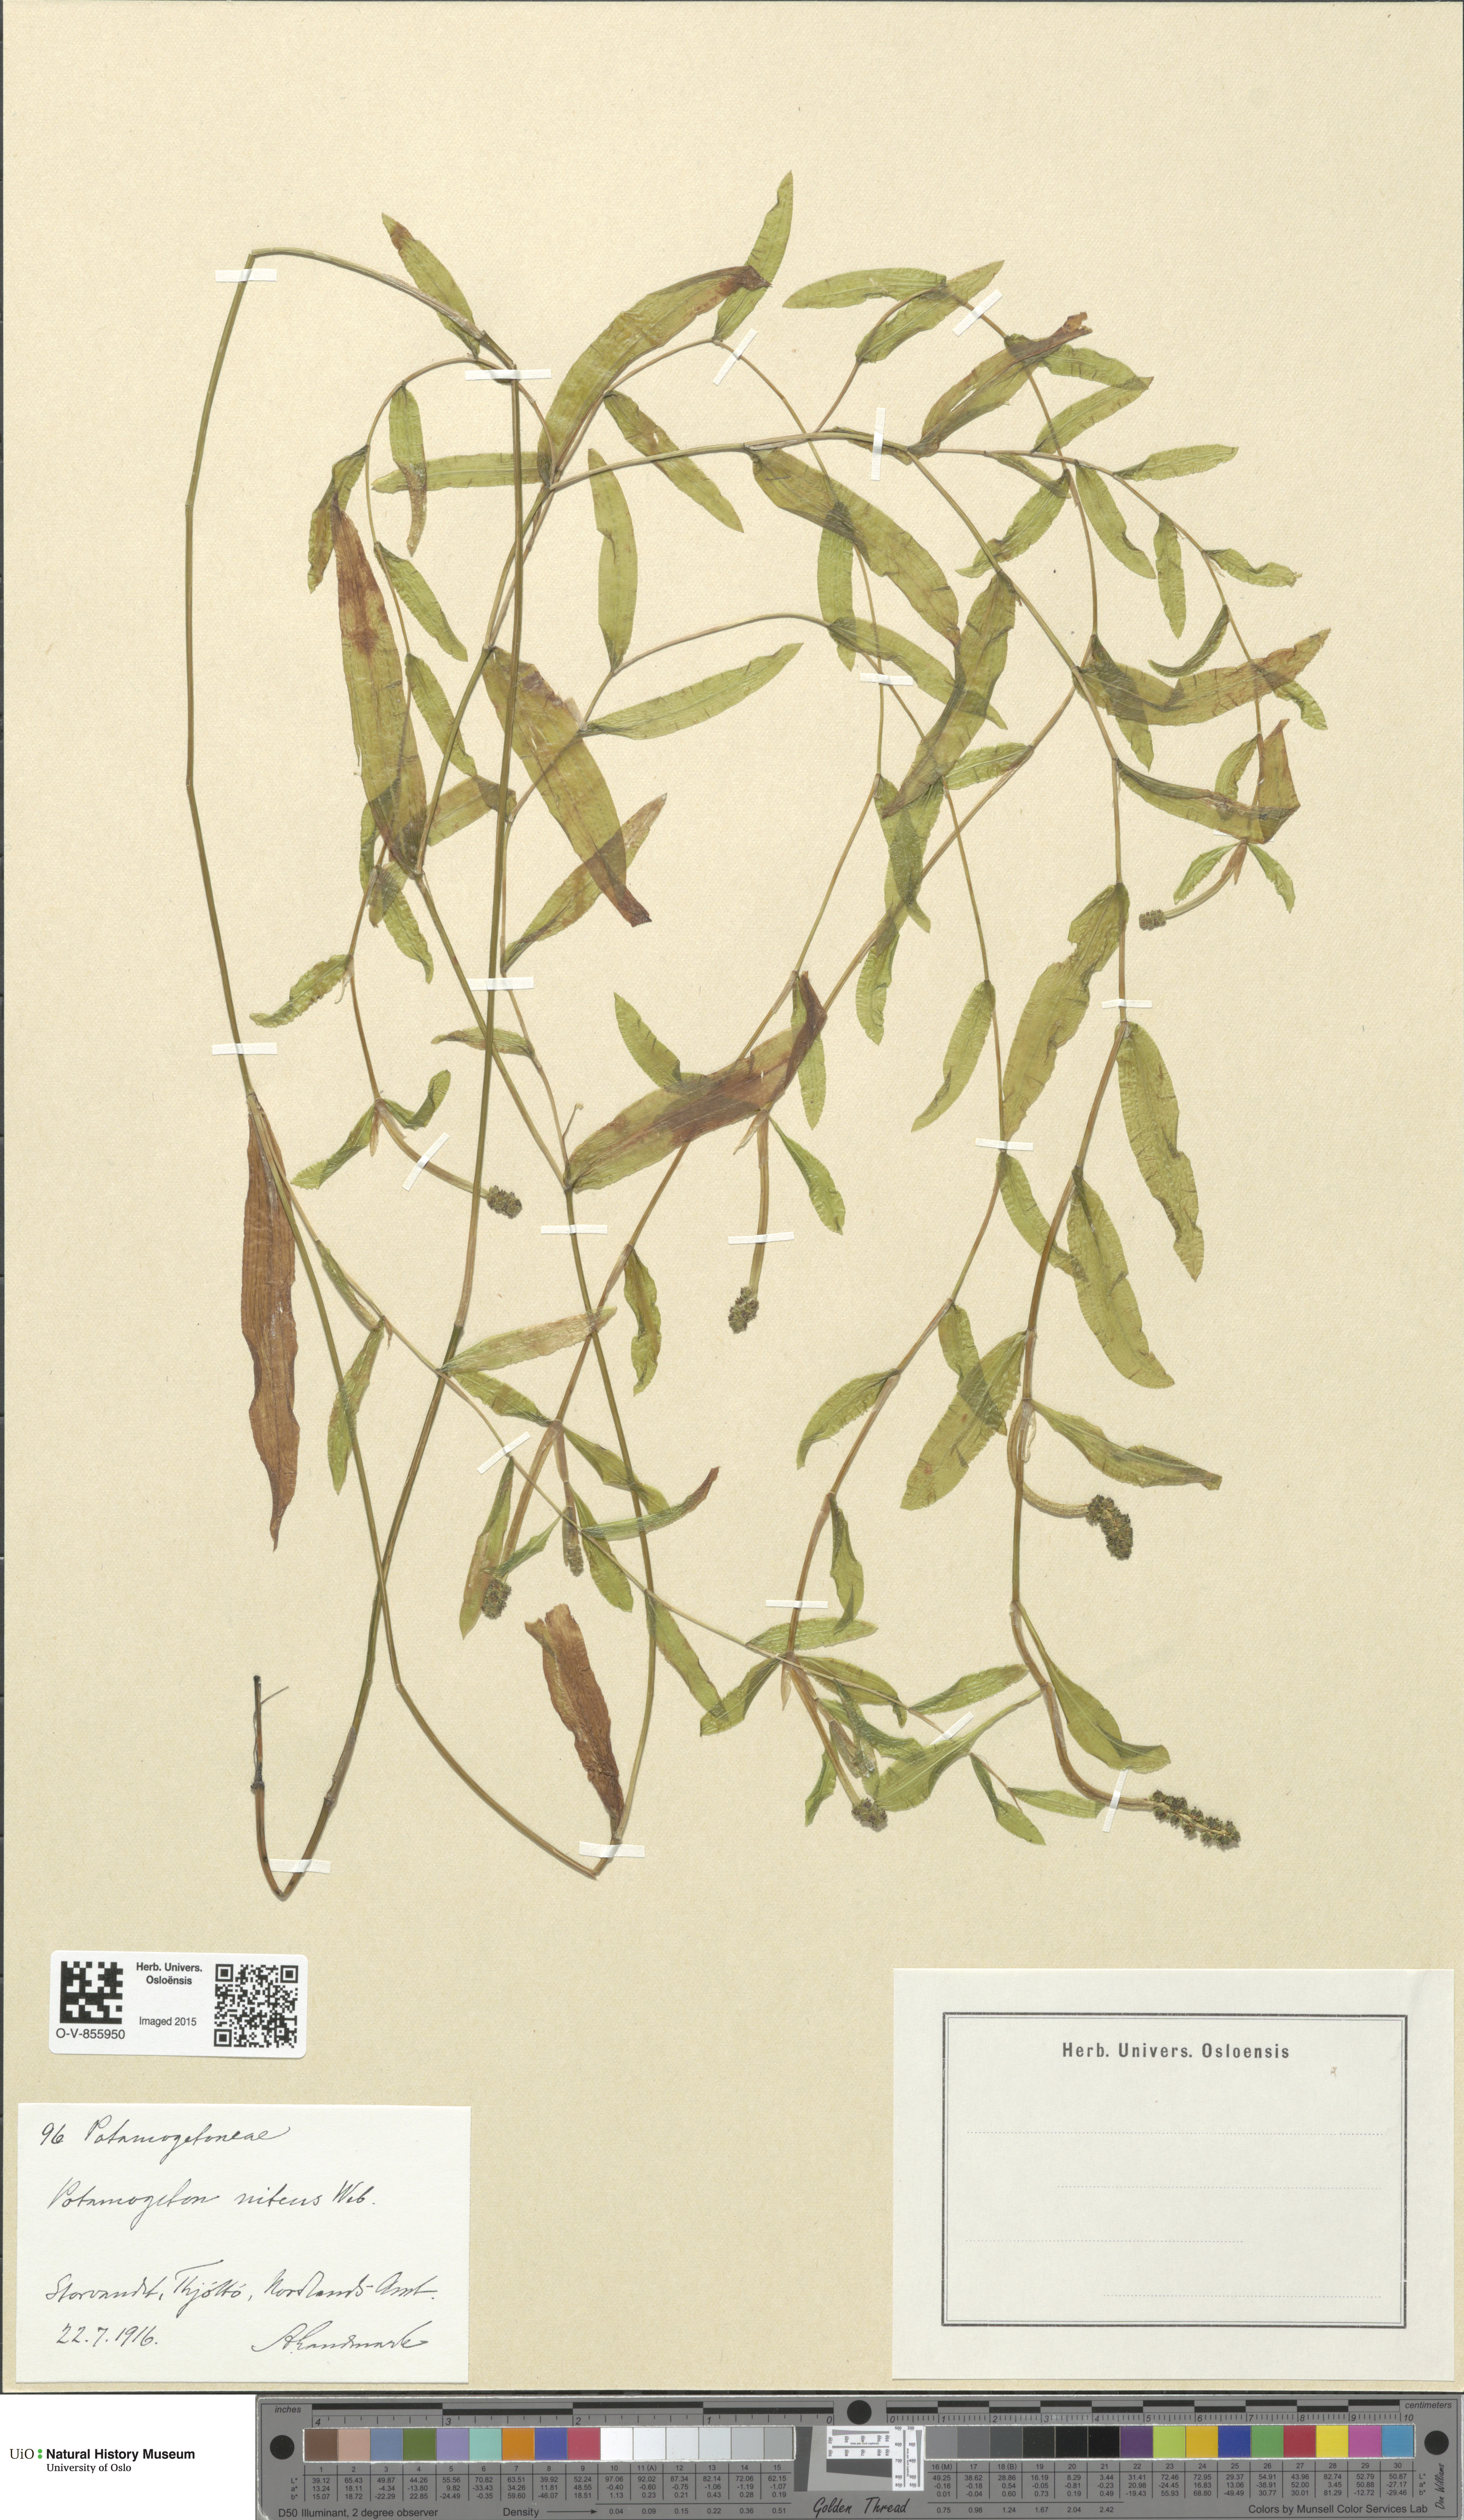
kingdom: Plantae
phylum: Tracheophyta
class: Liliopsida
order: Alismatales
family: Potamogetonaceae
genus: Potamogeton
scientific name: Potamogeton nitens
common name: Pondweed
